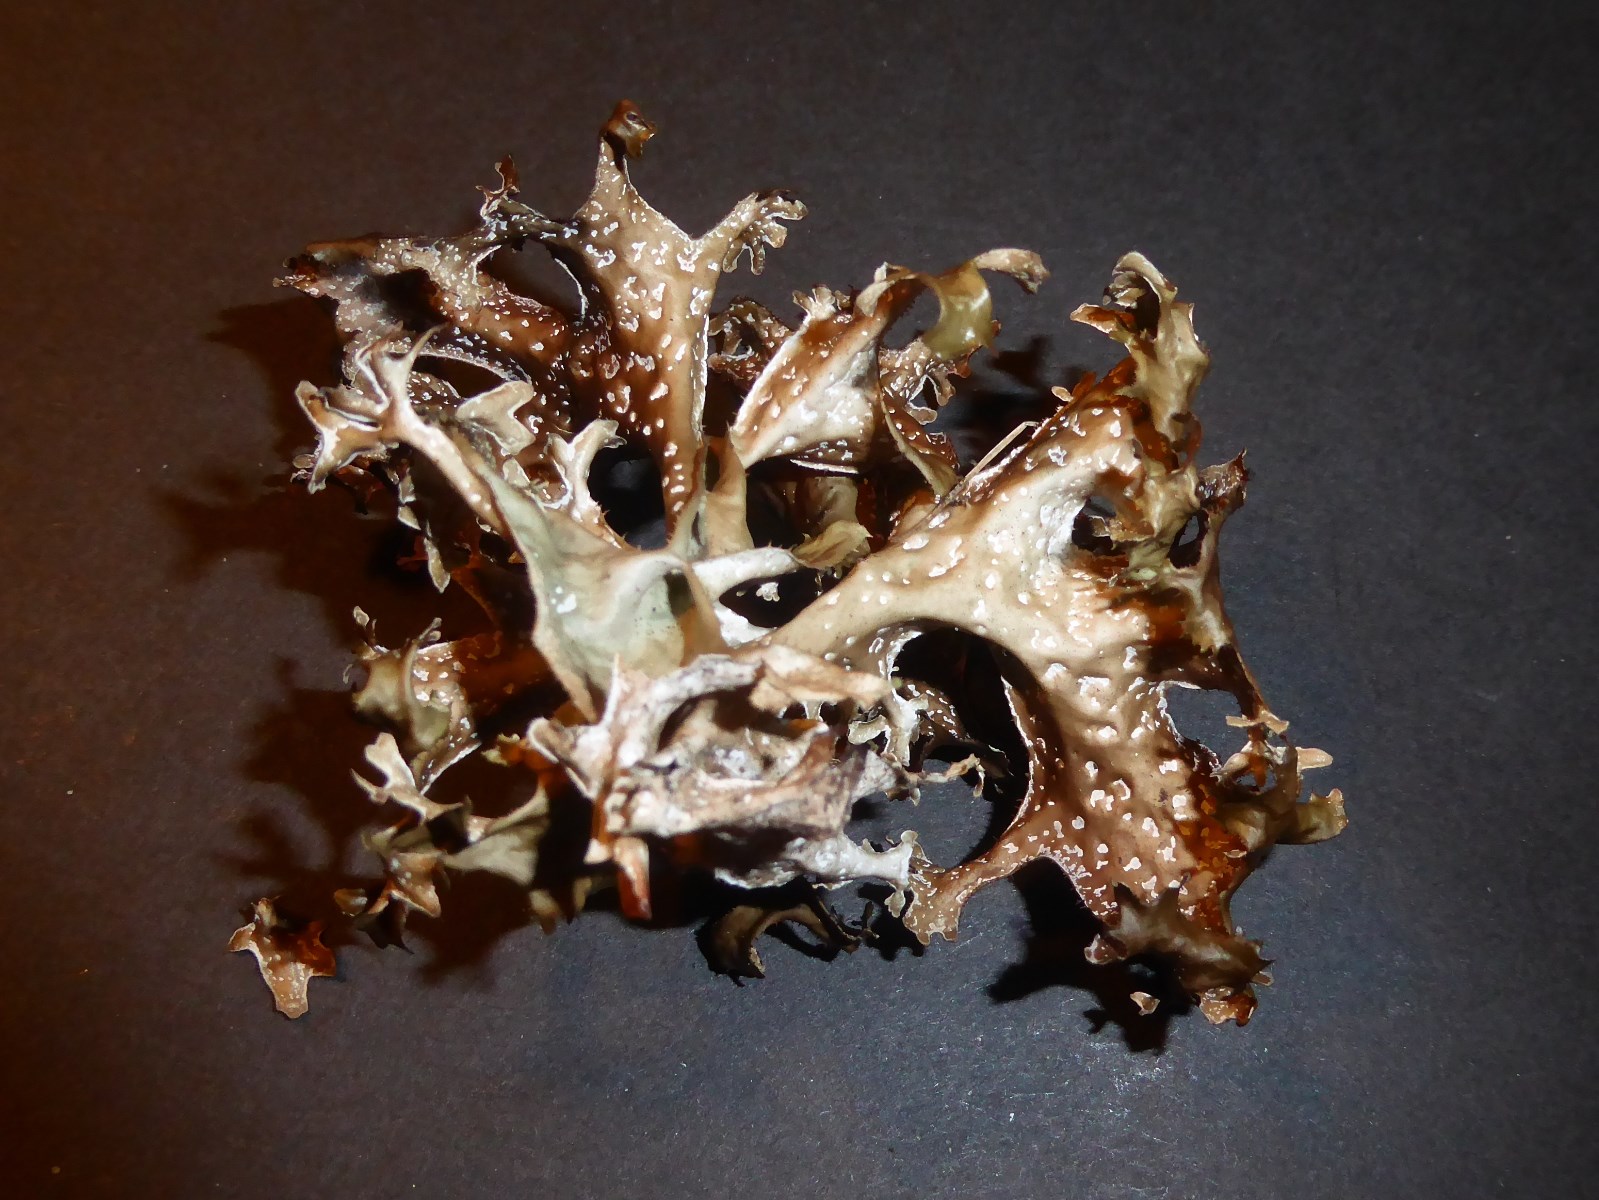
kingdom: Fungi
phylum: Ascomycota
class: Lecanoromycetes
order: Lecanorales
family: Parmeliaceae
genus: Cetraria
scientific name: Cetraria islandica
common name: islandsk kruslav
